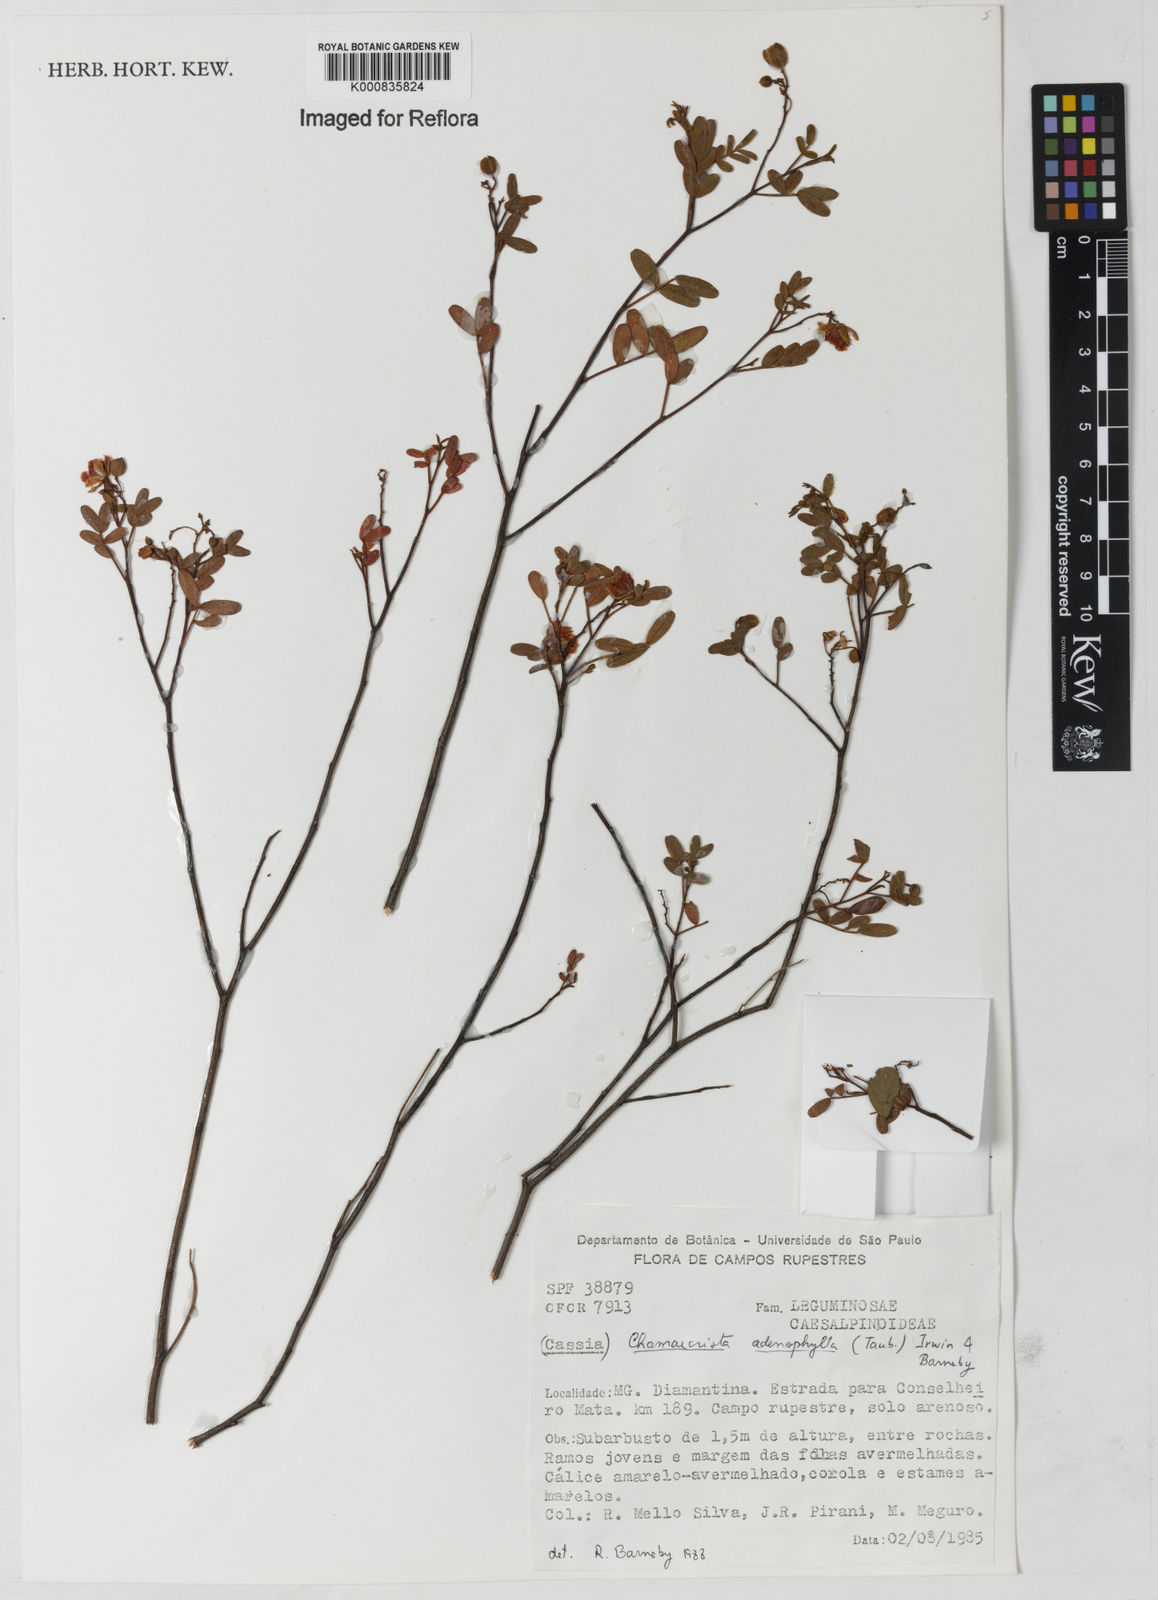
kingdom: Plantae
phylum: Tracheophyta
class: Magnoliopsida
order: Fabales
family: Fabaceae
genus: Chamaecrista
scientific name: Chamaecrista adenophylla
